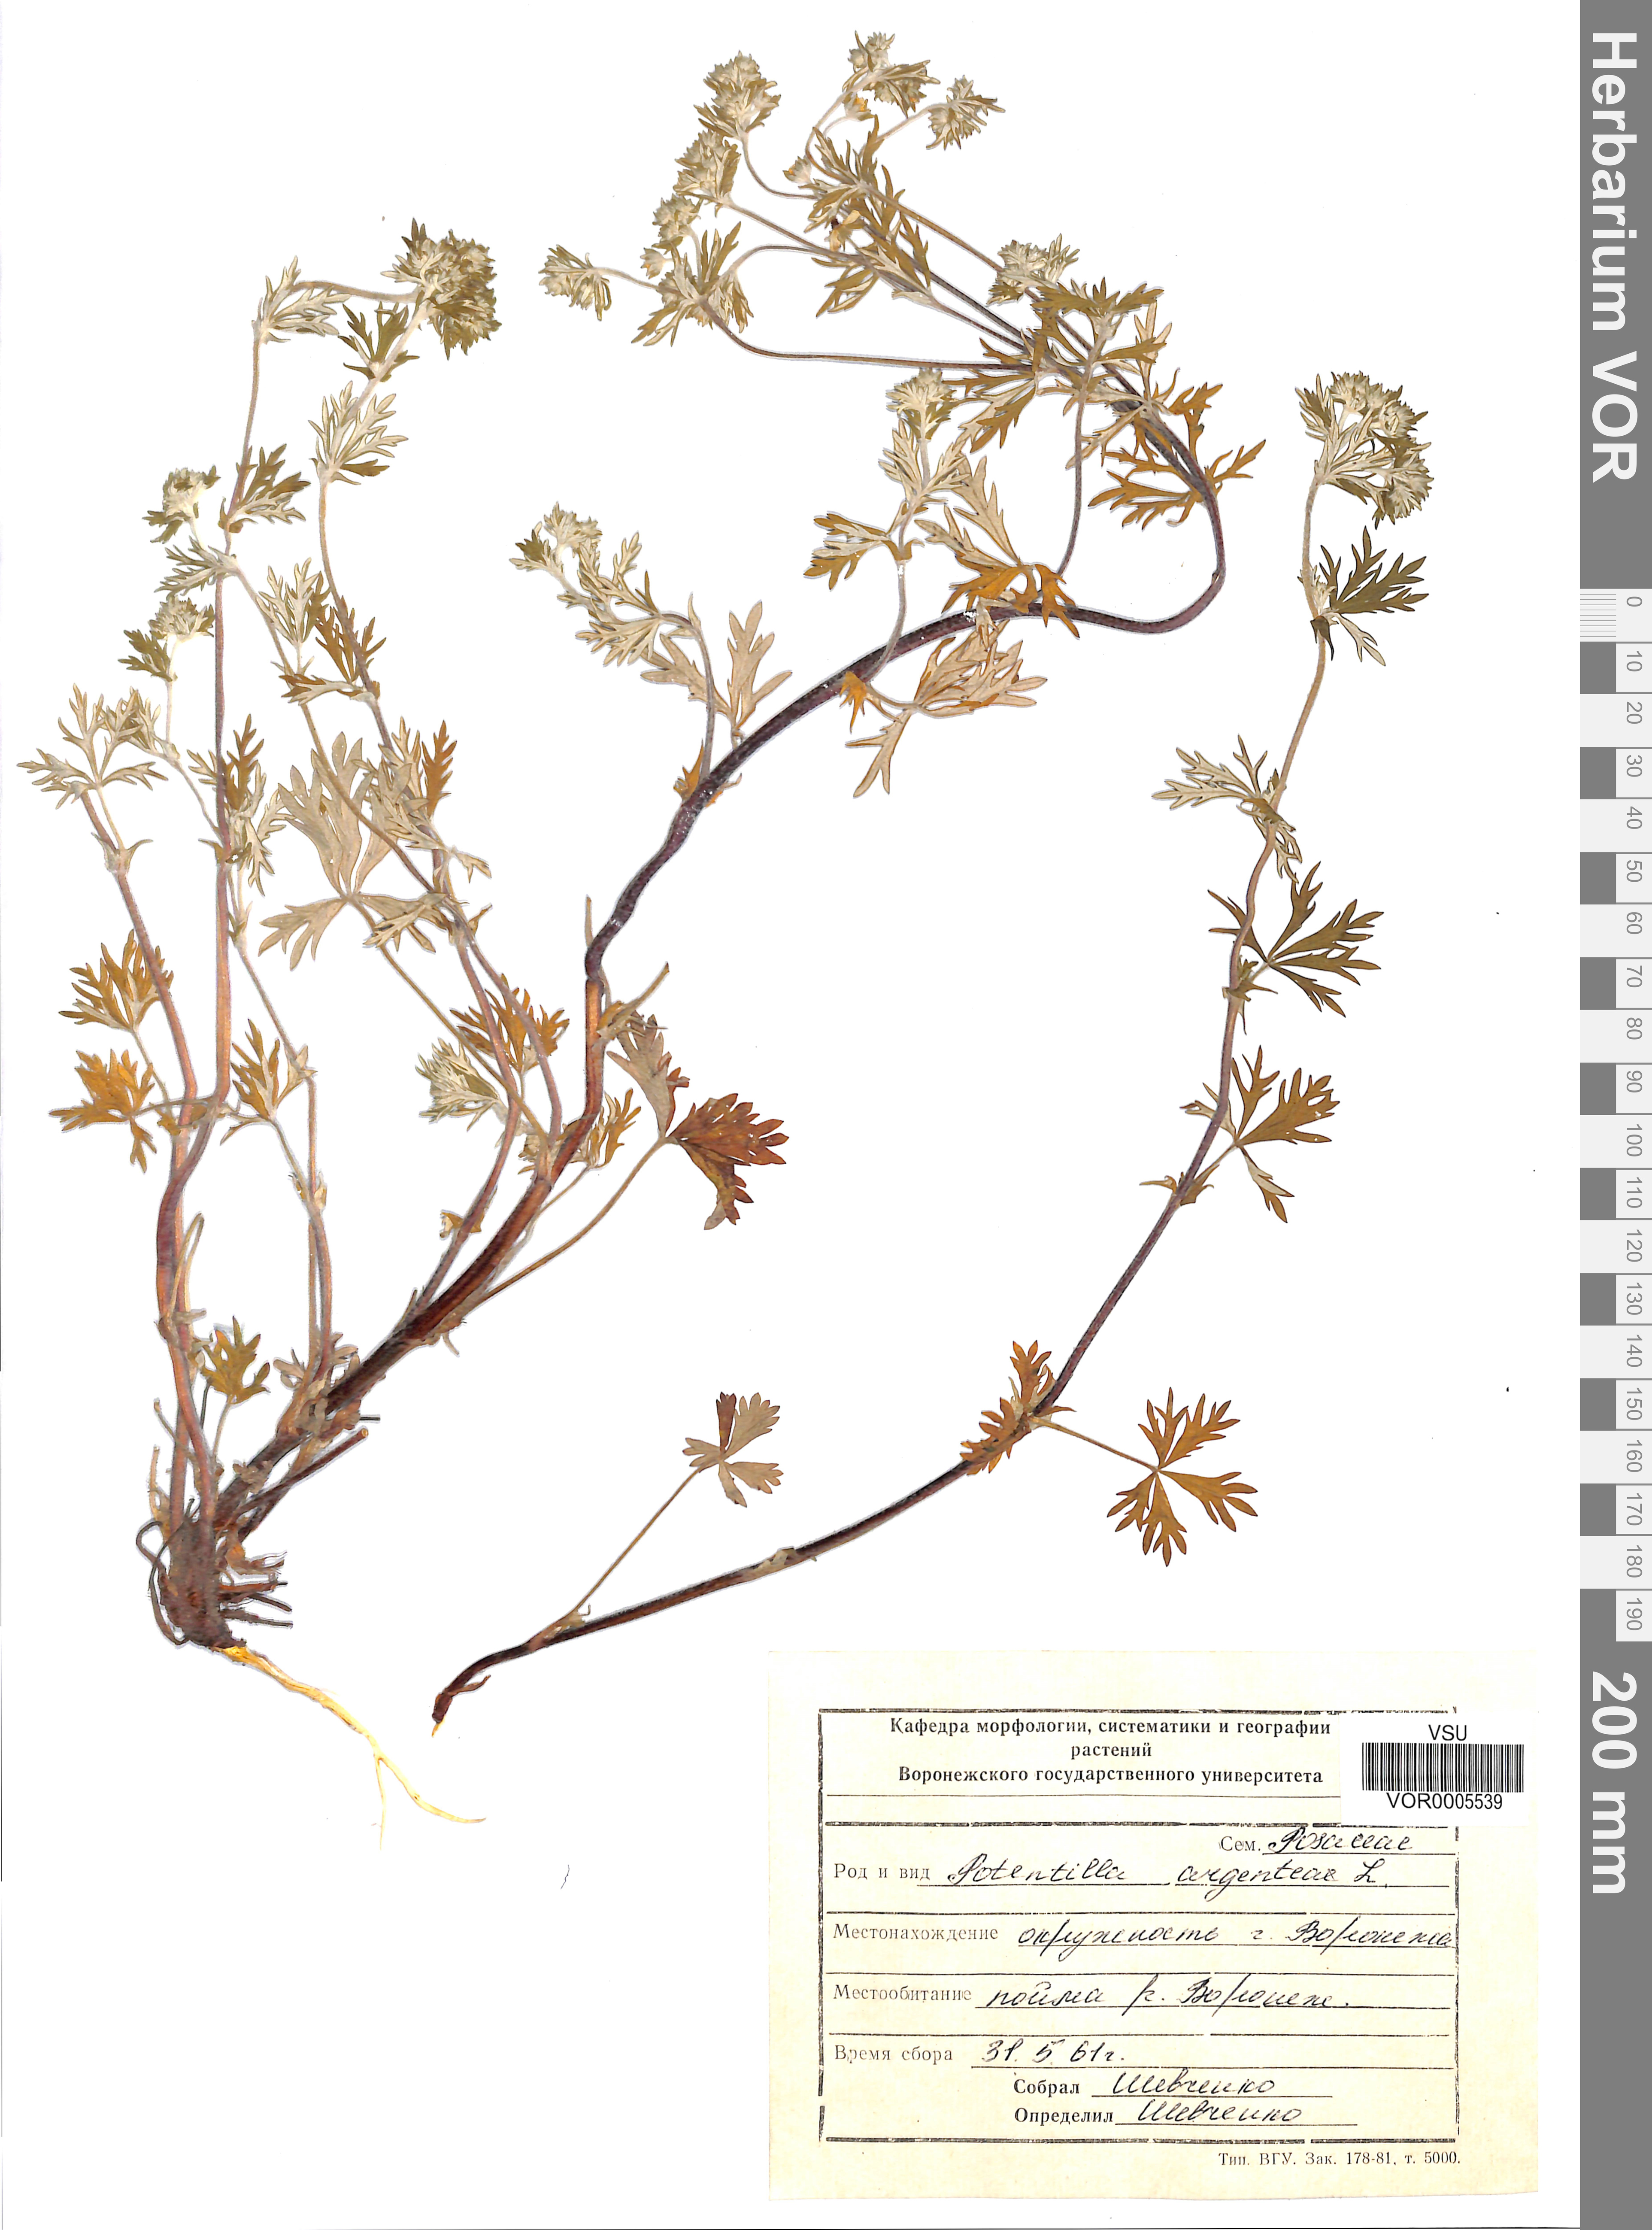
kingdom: Plantae
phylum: Tracheophyta
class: Magnoliopsida
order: Rosales
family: Rosaceae
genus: Potentilla
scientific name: Potentilla argentea
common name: Hoary cinquefoil
